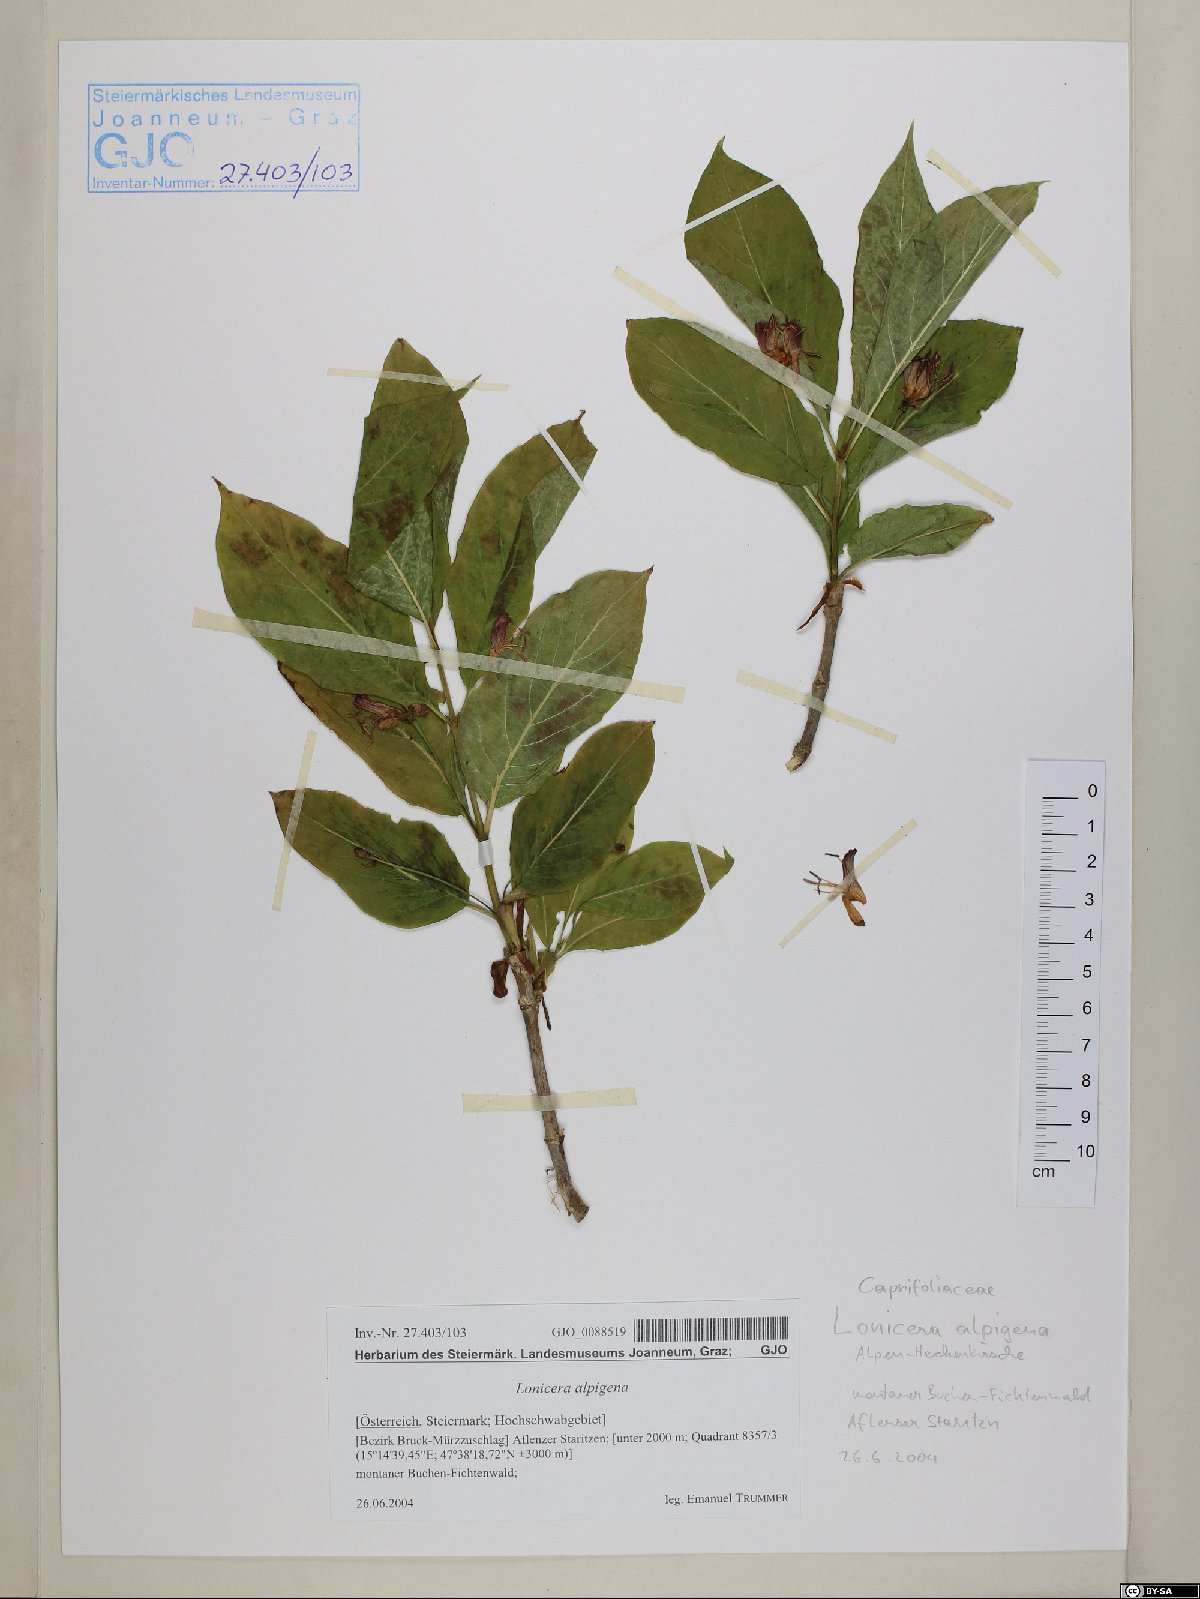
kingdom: Plantae
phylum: Tracheophyta
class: Magnoliopsida
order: Dipsacales
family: Caprifoliaceae
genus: Lonicera
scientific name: Lonicera alpigena
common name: Alpine honeysuckle
